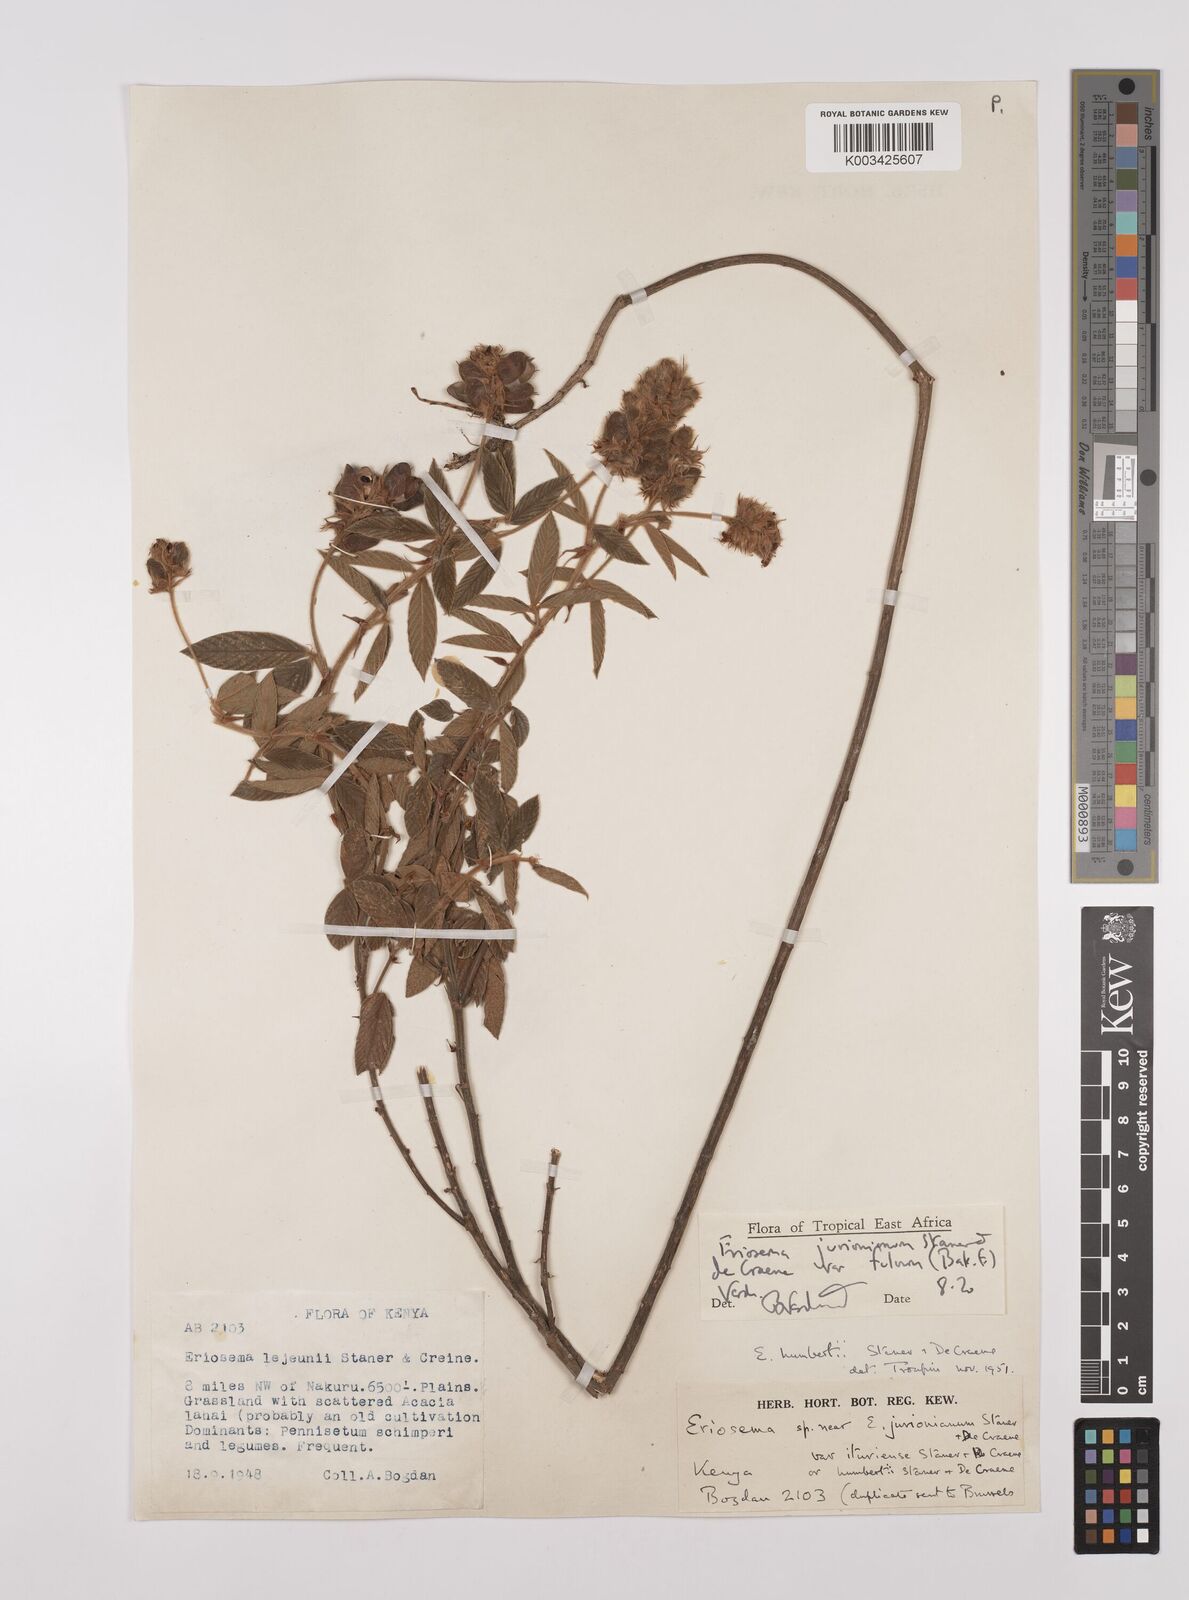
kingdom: Plantae
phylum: Tracheophyta
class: Magnoliopsida
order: Fabales
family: Fabaceae
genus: Eriosema
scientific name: Eriosema jurionianum
